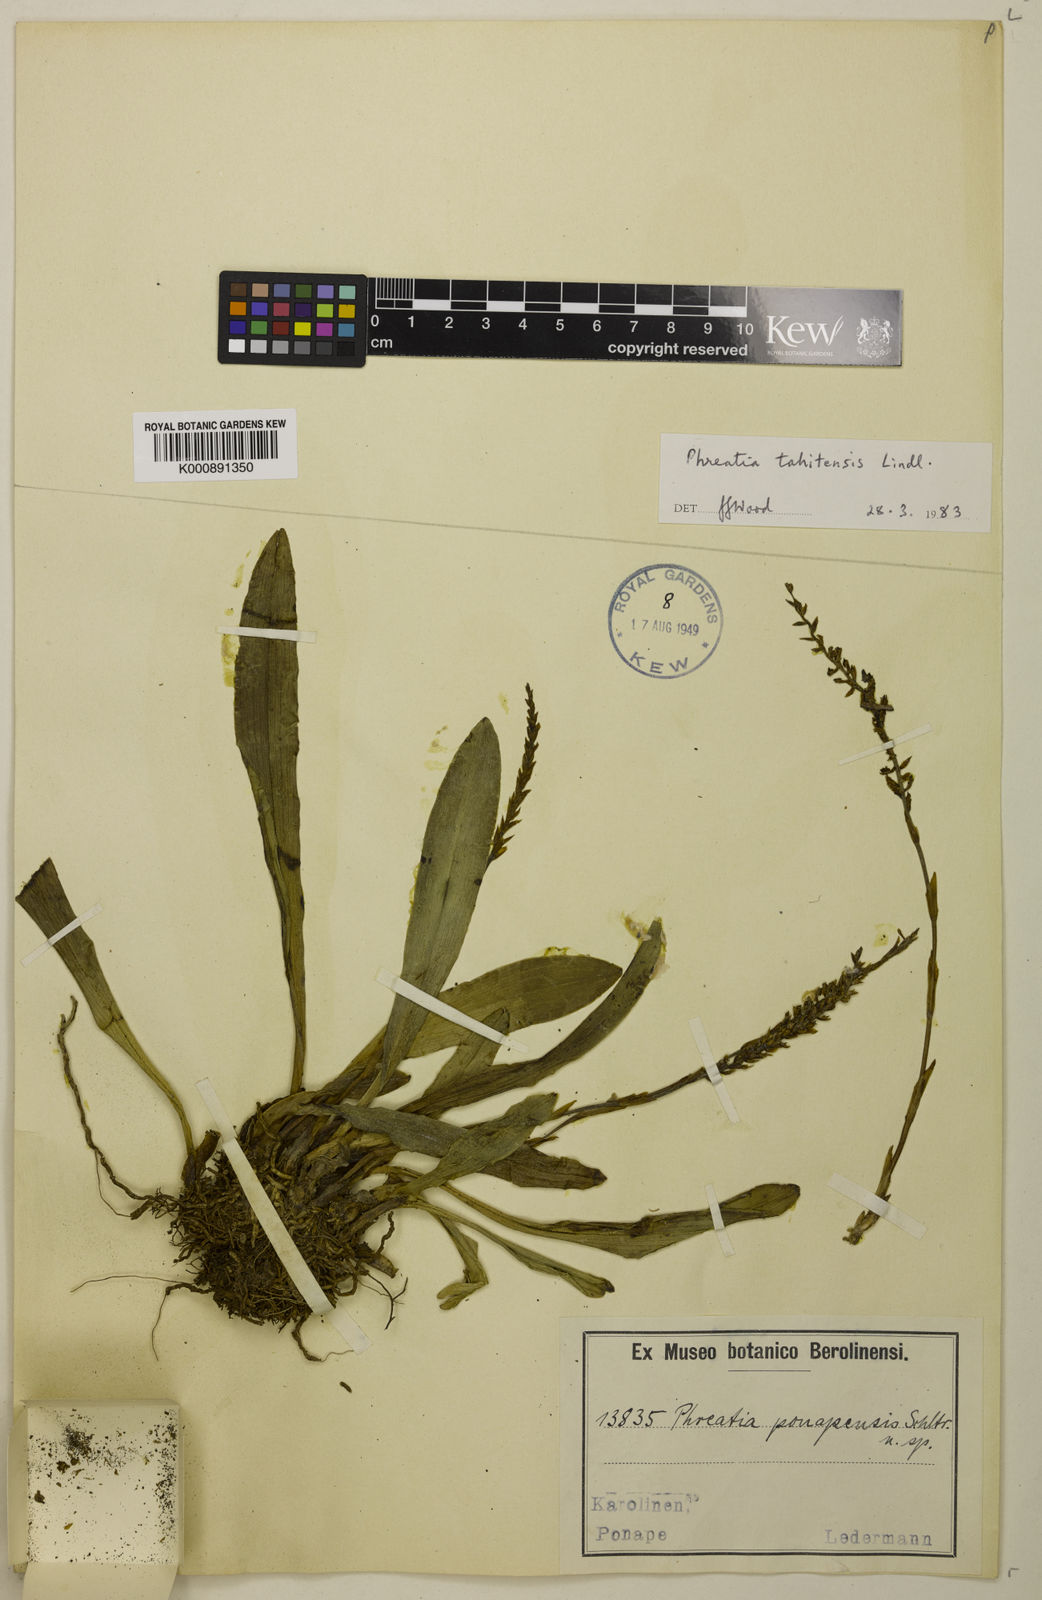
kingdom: Plantae
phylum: Tracheophyta
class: Liliopsida
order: Asparagales
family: Orchidaceae
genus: Phreatia
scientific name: Phreatia paleata
